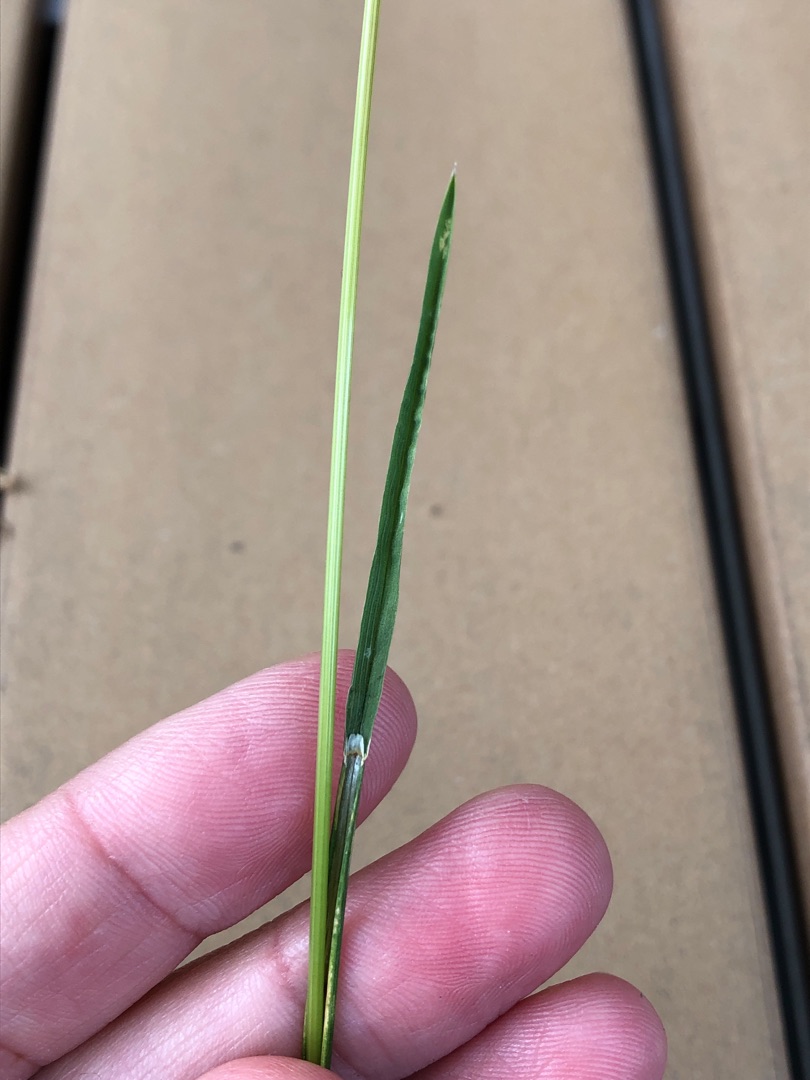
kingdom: Plantae
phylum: Tracheophyta
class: Liliopsida
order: Poales
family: Poaceae
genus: Poa
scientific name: Poa
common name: Rapgræsslægten
